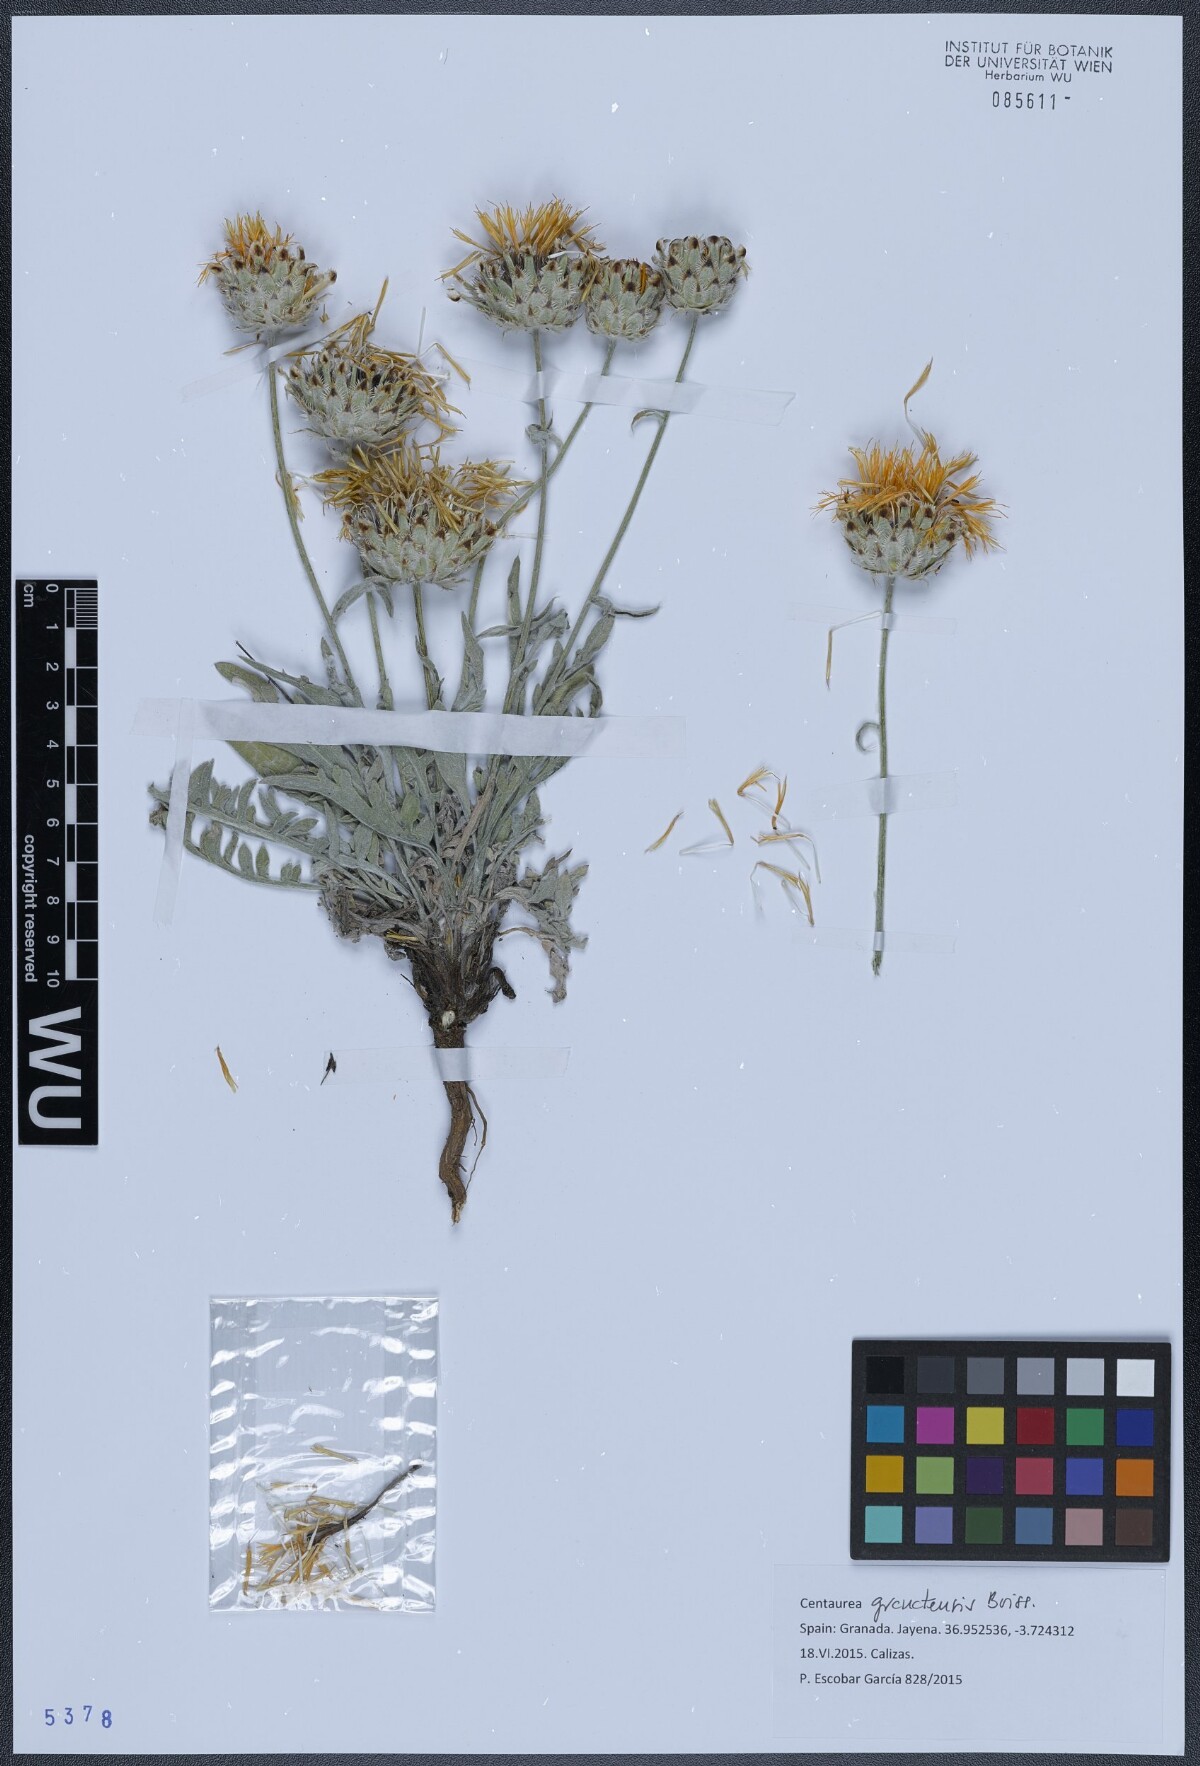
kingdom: Plantae
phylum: Tracheophyta
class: Magnoliopsida
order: Asterales
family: Asteraceae
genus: Centaurea
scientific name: Centaurea granatensis
